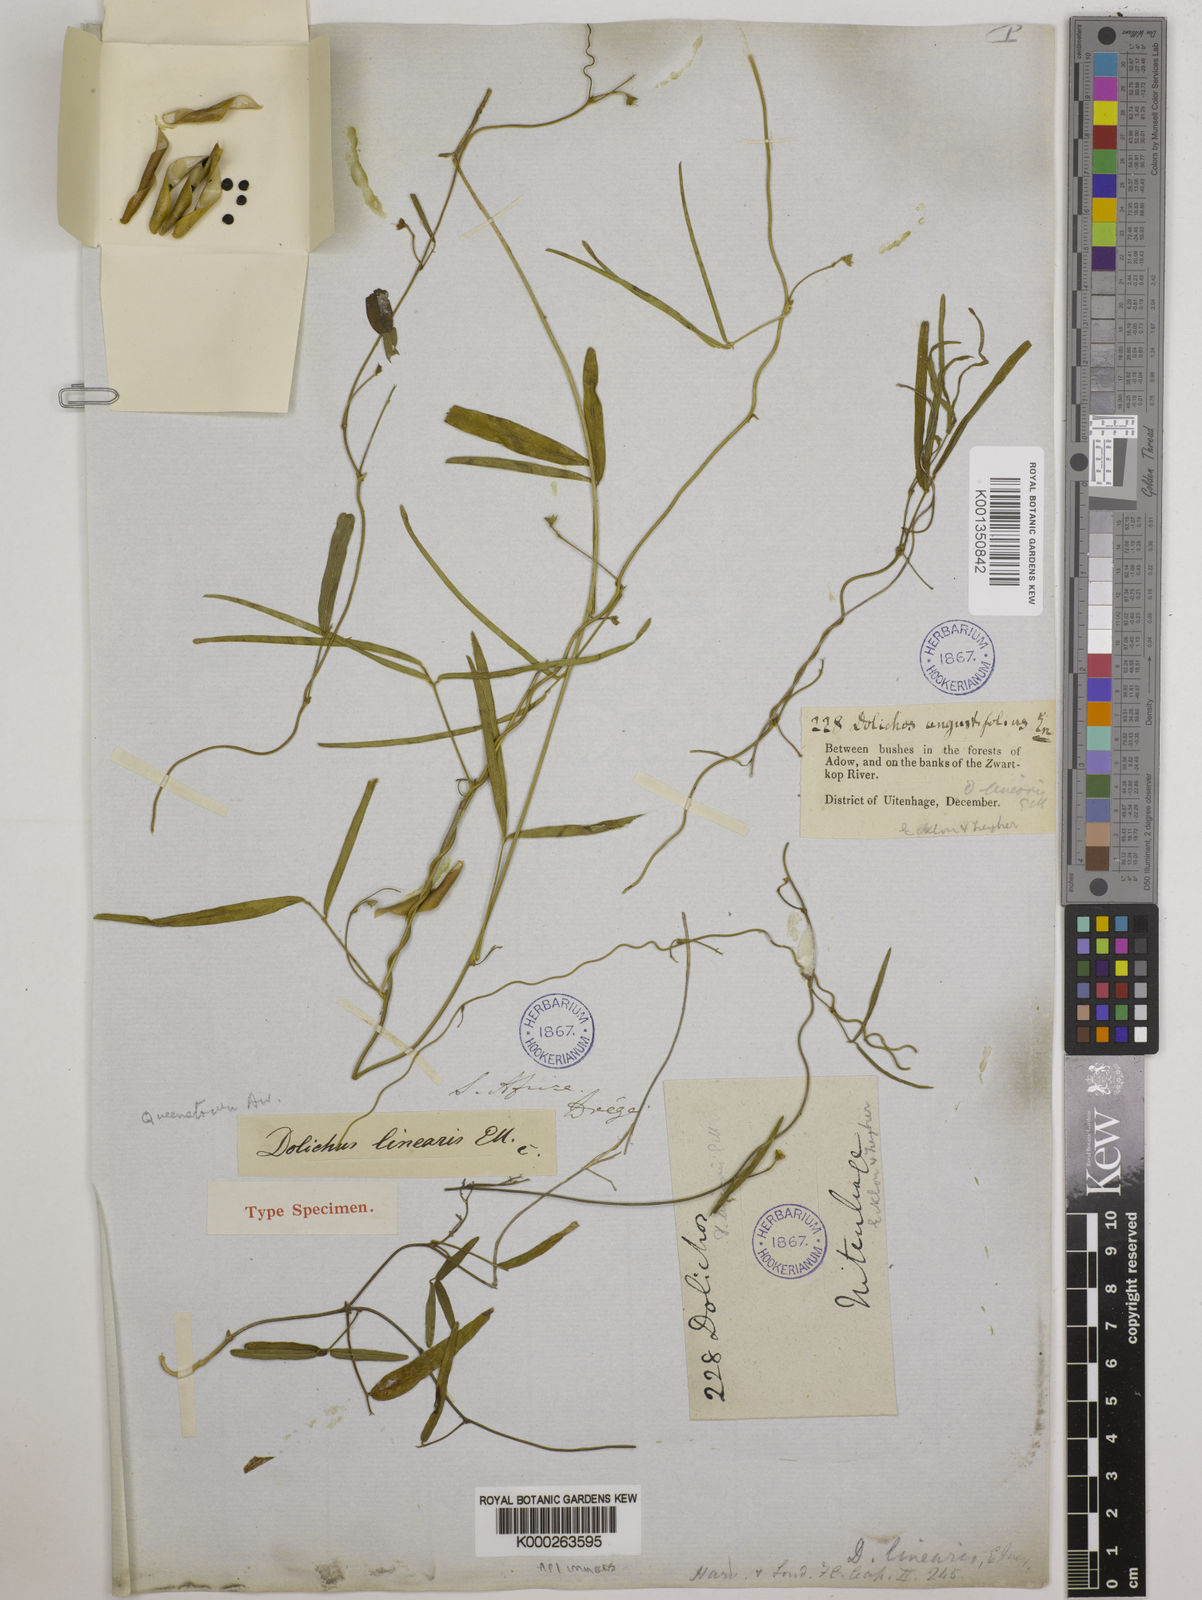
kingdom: Plantae
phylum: Tracheophyta
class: Magnoliopsida
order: Fabales
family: Fabaceae
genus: Dolichos
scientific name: Dolichos linearis
